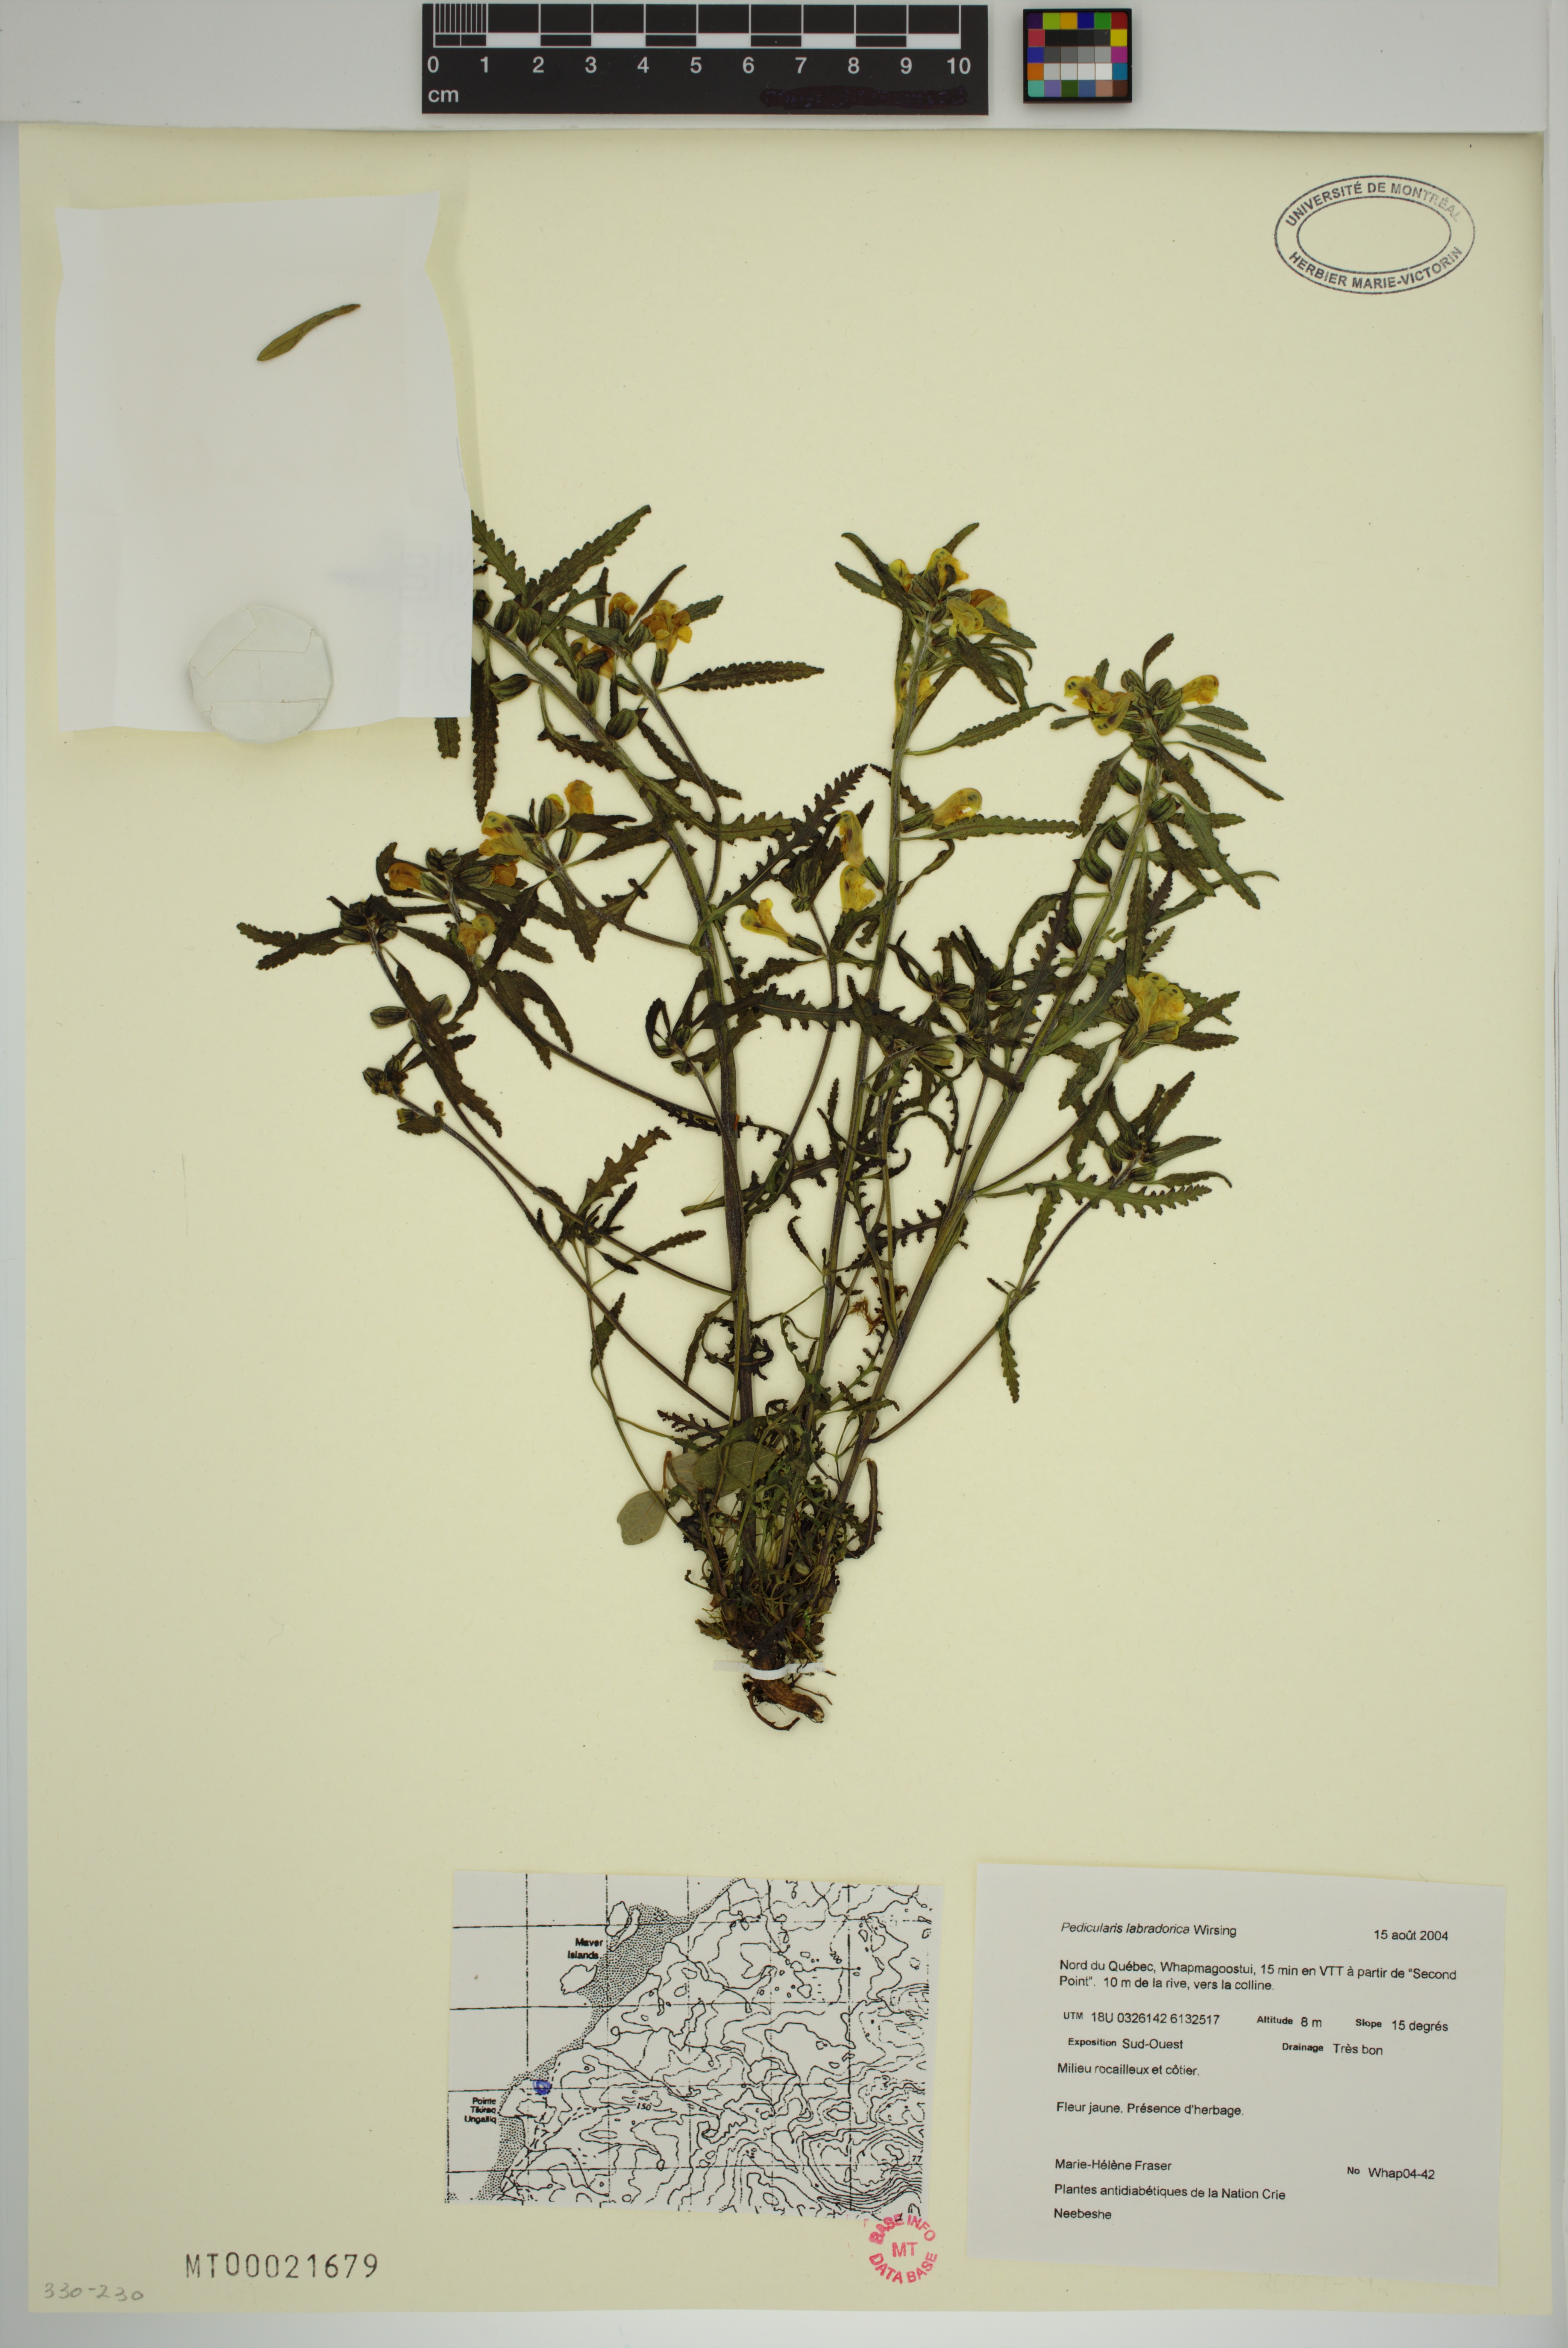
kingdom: Plantae
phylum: Tracheophyta
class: Magnoliopsida
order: Lamiales
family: Orobanchaceae
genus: Pedicularis
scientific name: Pedicularis labradorica
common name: Labrador lousewort
